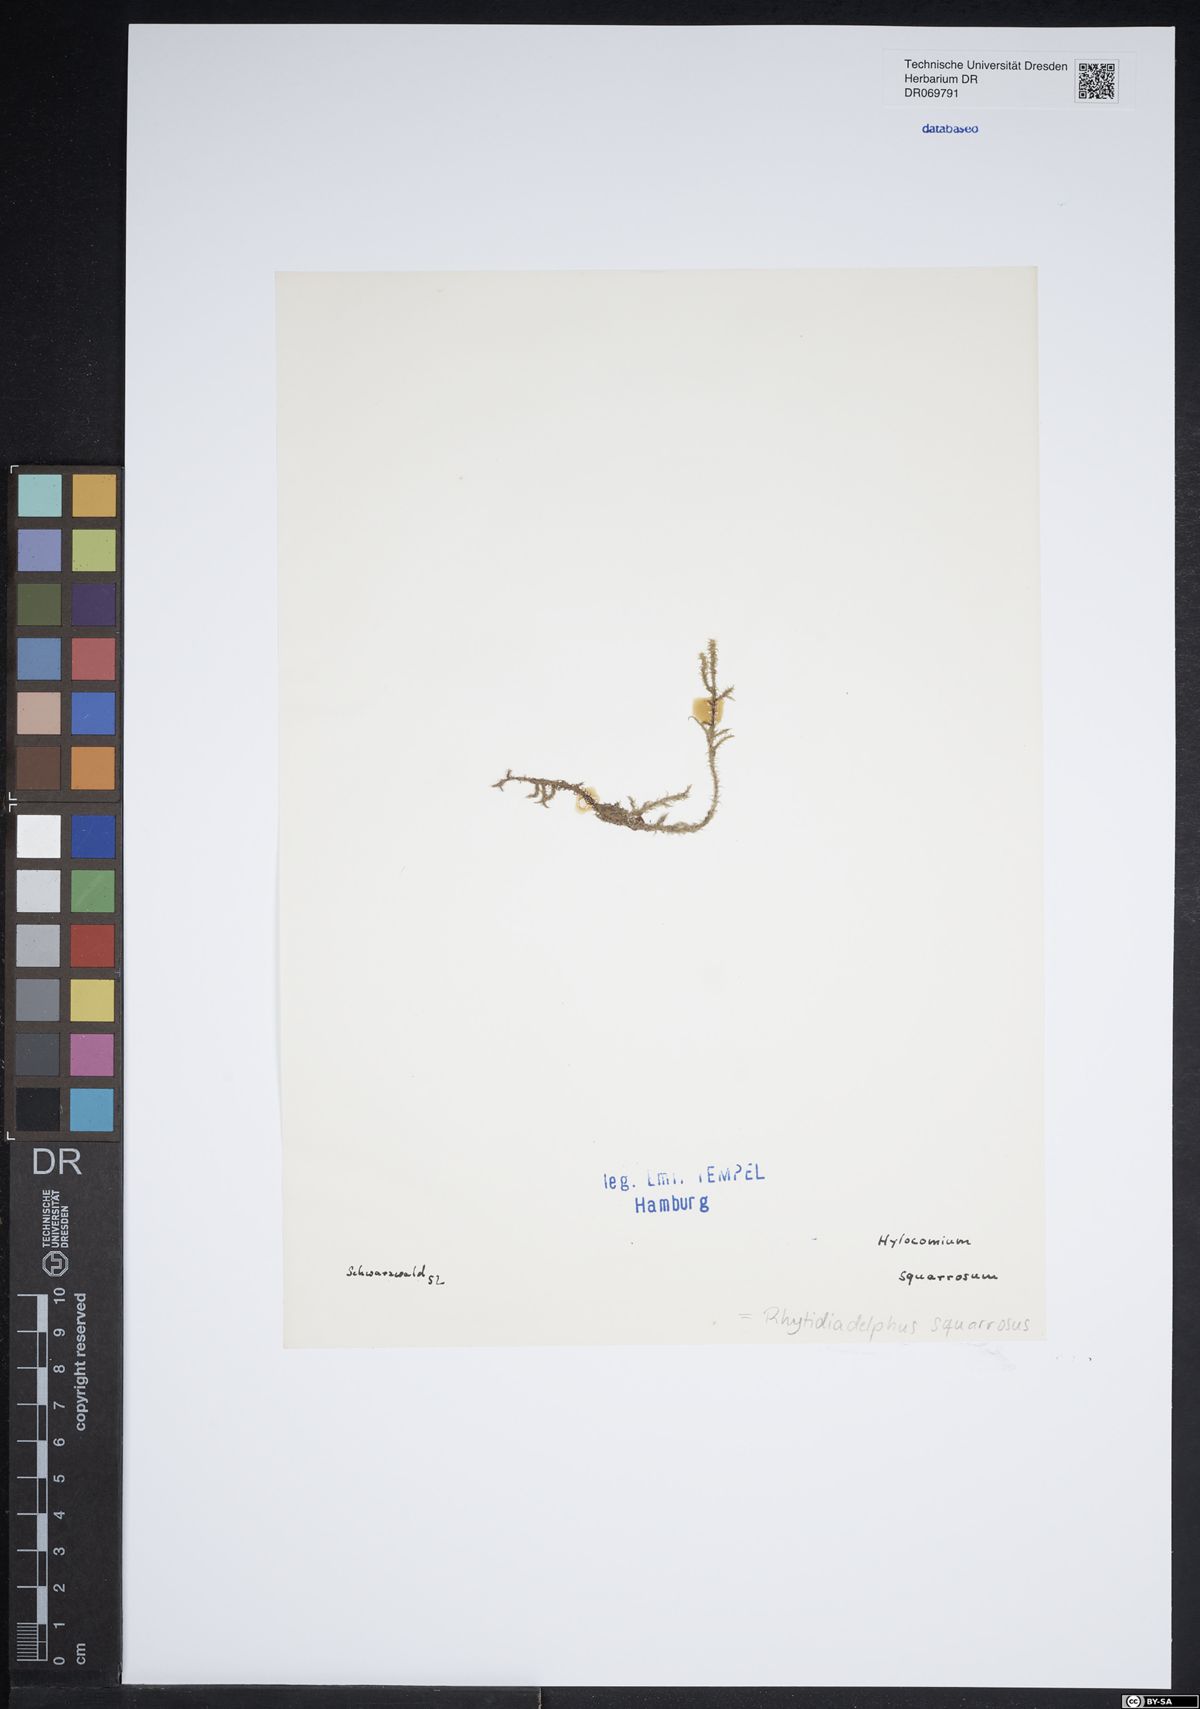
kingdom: Plantae
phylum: Bryophyta
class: Bryopsida
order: Hypnales
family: Hylocomiaceae
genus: Rhytidiadelphus
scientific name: Rhytidiadelphus squarrosus
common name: Springy turf-moss
